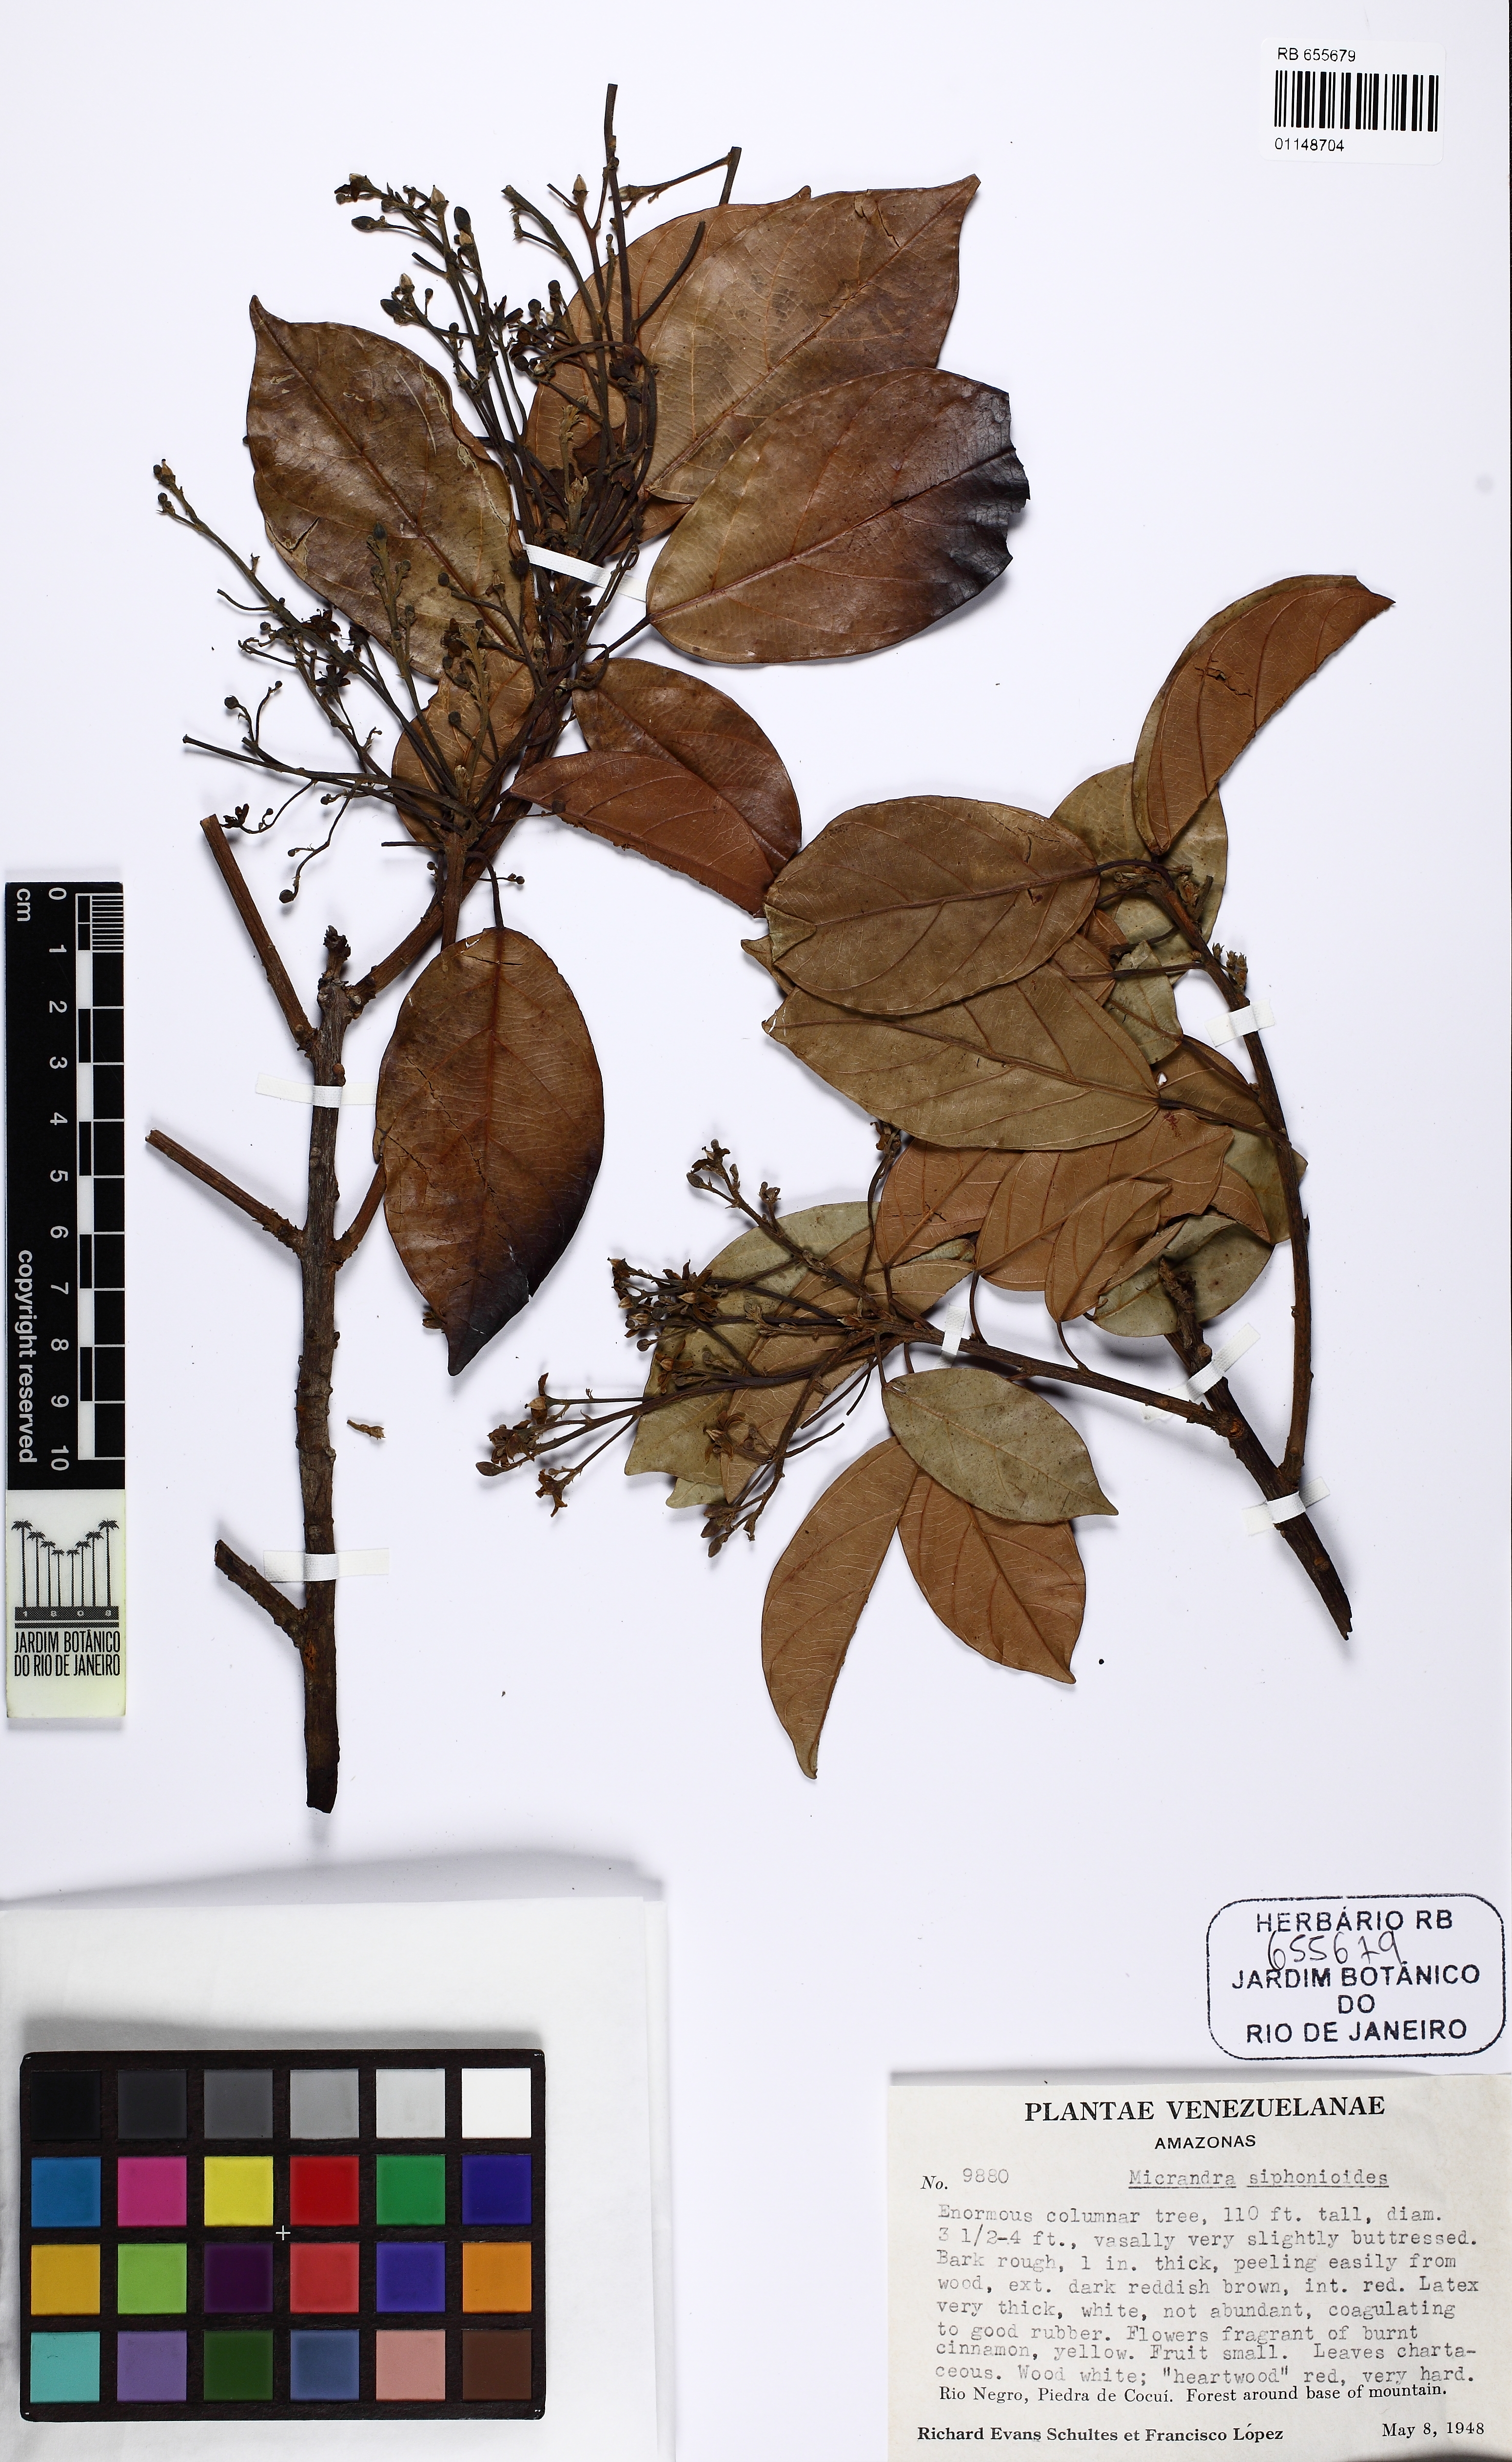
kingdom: Plantae
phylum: Tracheophyta
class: Magnoliopsida
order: Malpighiales
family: Euphorbiaceae
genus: Micrandra
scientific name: Micrandra siphonioides
